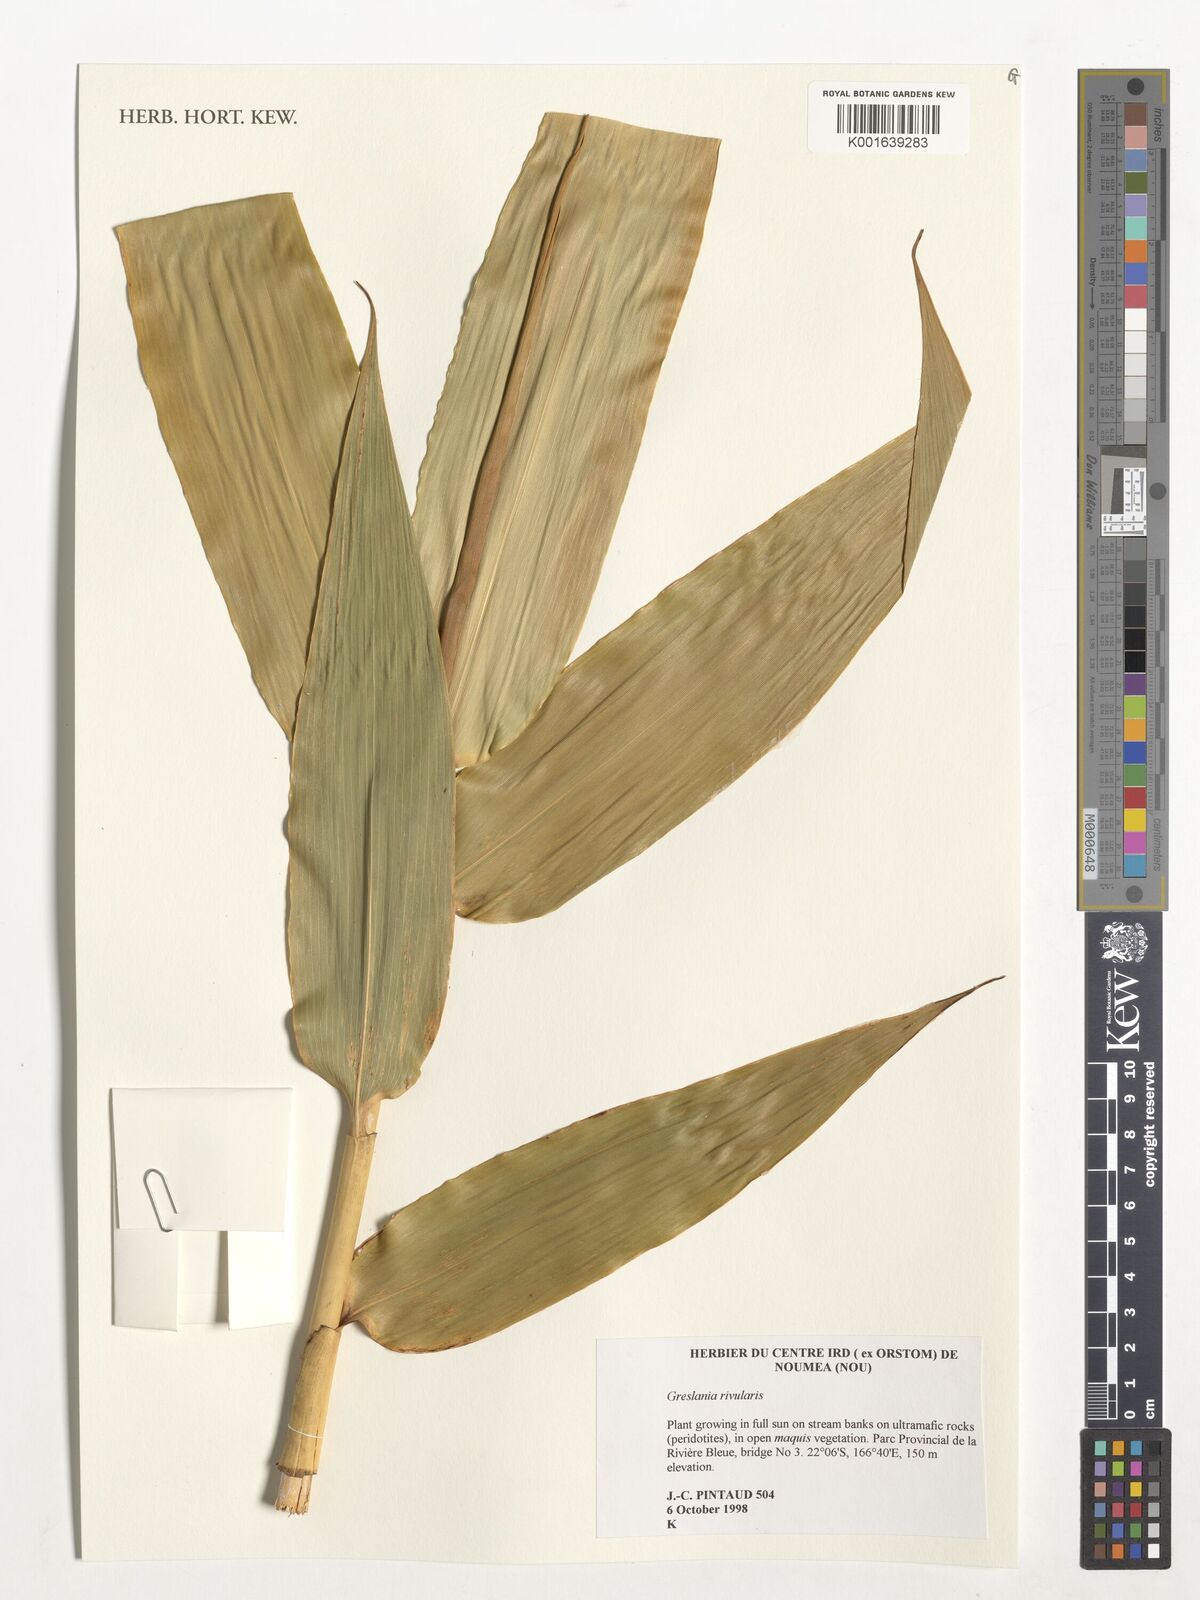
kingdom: Plantae
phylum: Tracheophyta
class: Liliopsida
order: Poales
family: Poaceae
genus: Greslania
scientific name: Greslania rivularis
